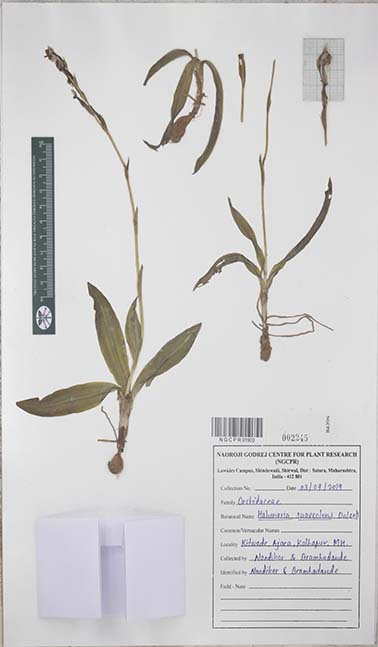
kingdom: Plantae
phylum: Tracheophyta
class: Liliopsida
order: Asparagales
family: Orchidaceae
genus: Habenaria
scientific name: Habenaria suaveolens
